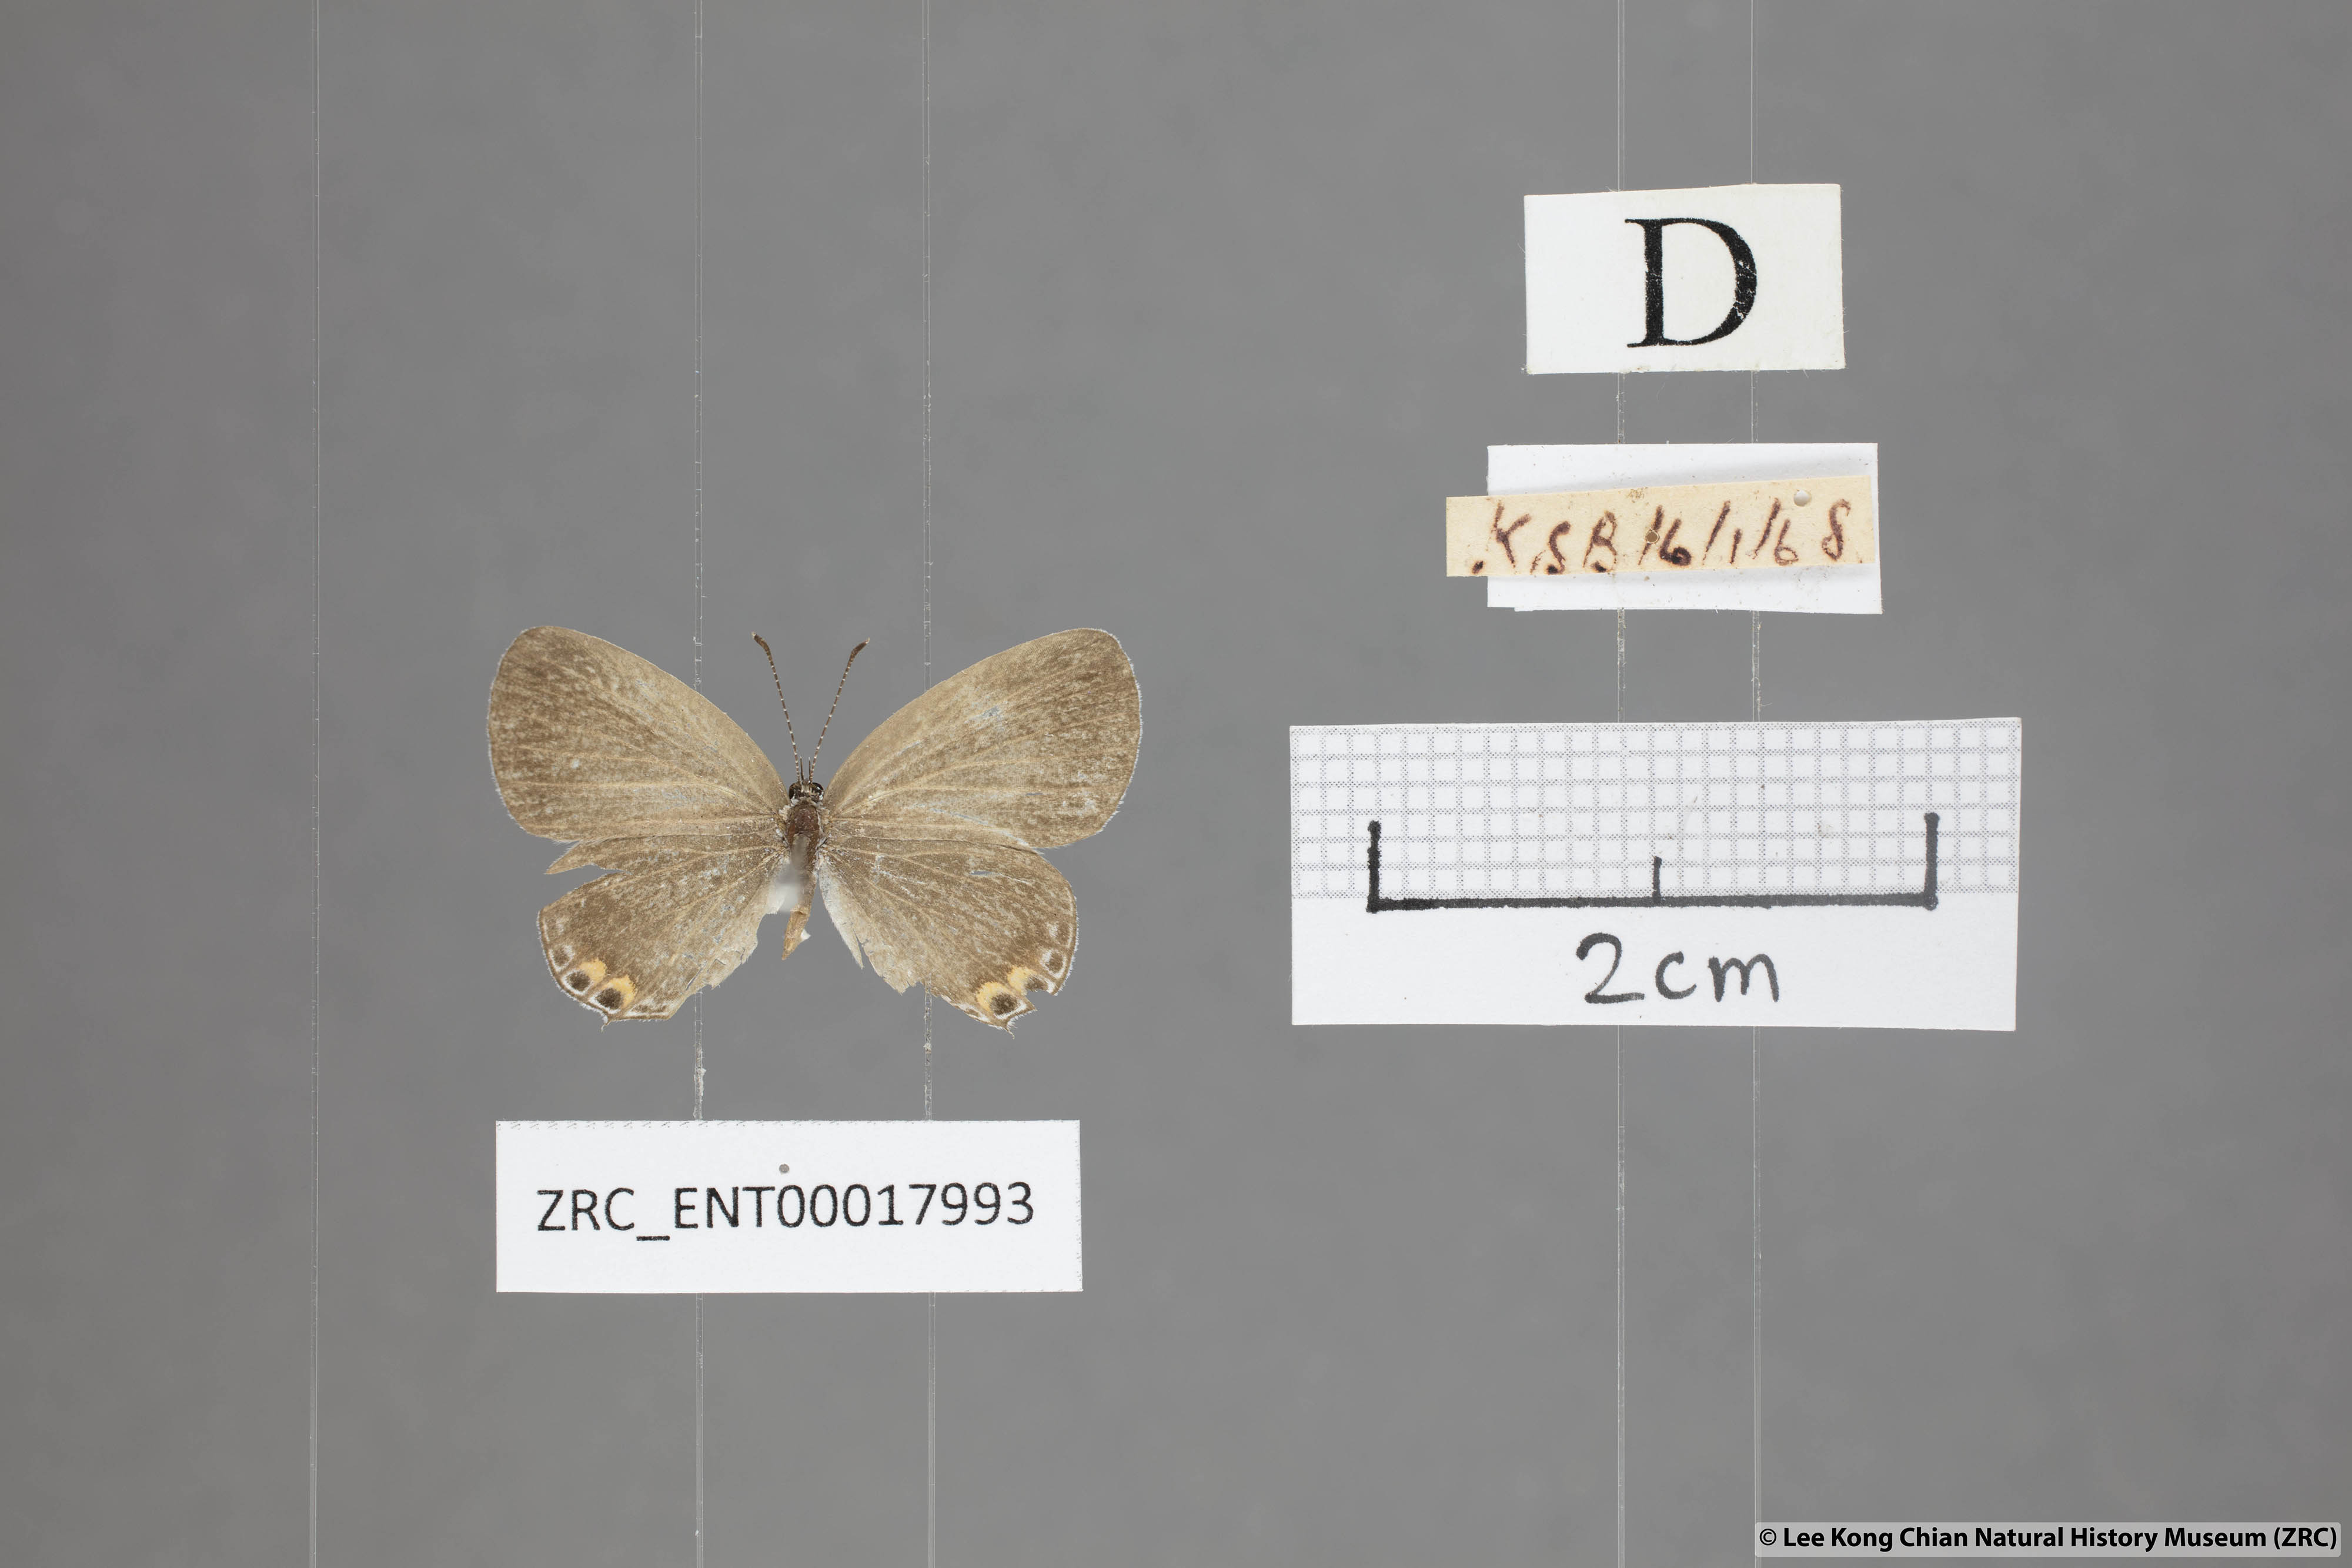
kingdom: Animalia
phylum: Arthropoda
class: Insecta
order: Lepidoptera
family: Lycaenidae
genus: Everes
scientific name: Everes lacturnus
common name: Orange-tipped pea-blue
